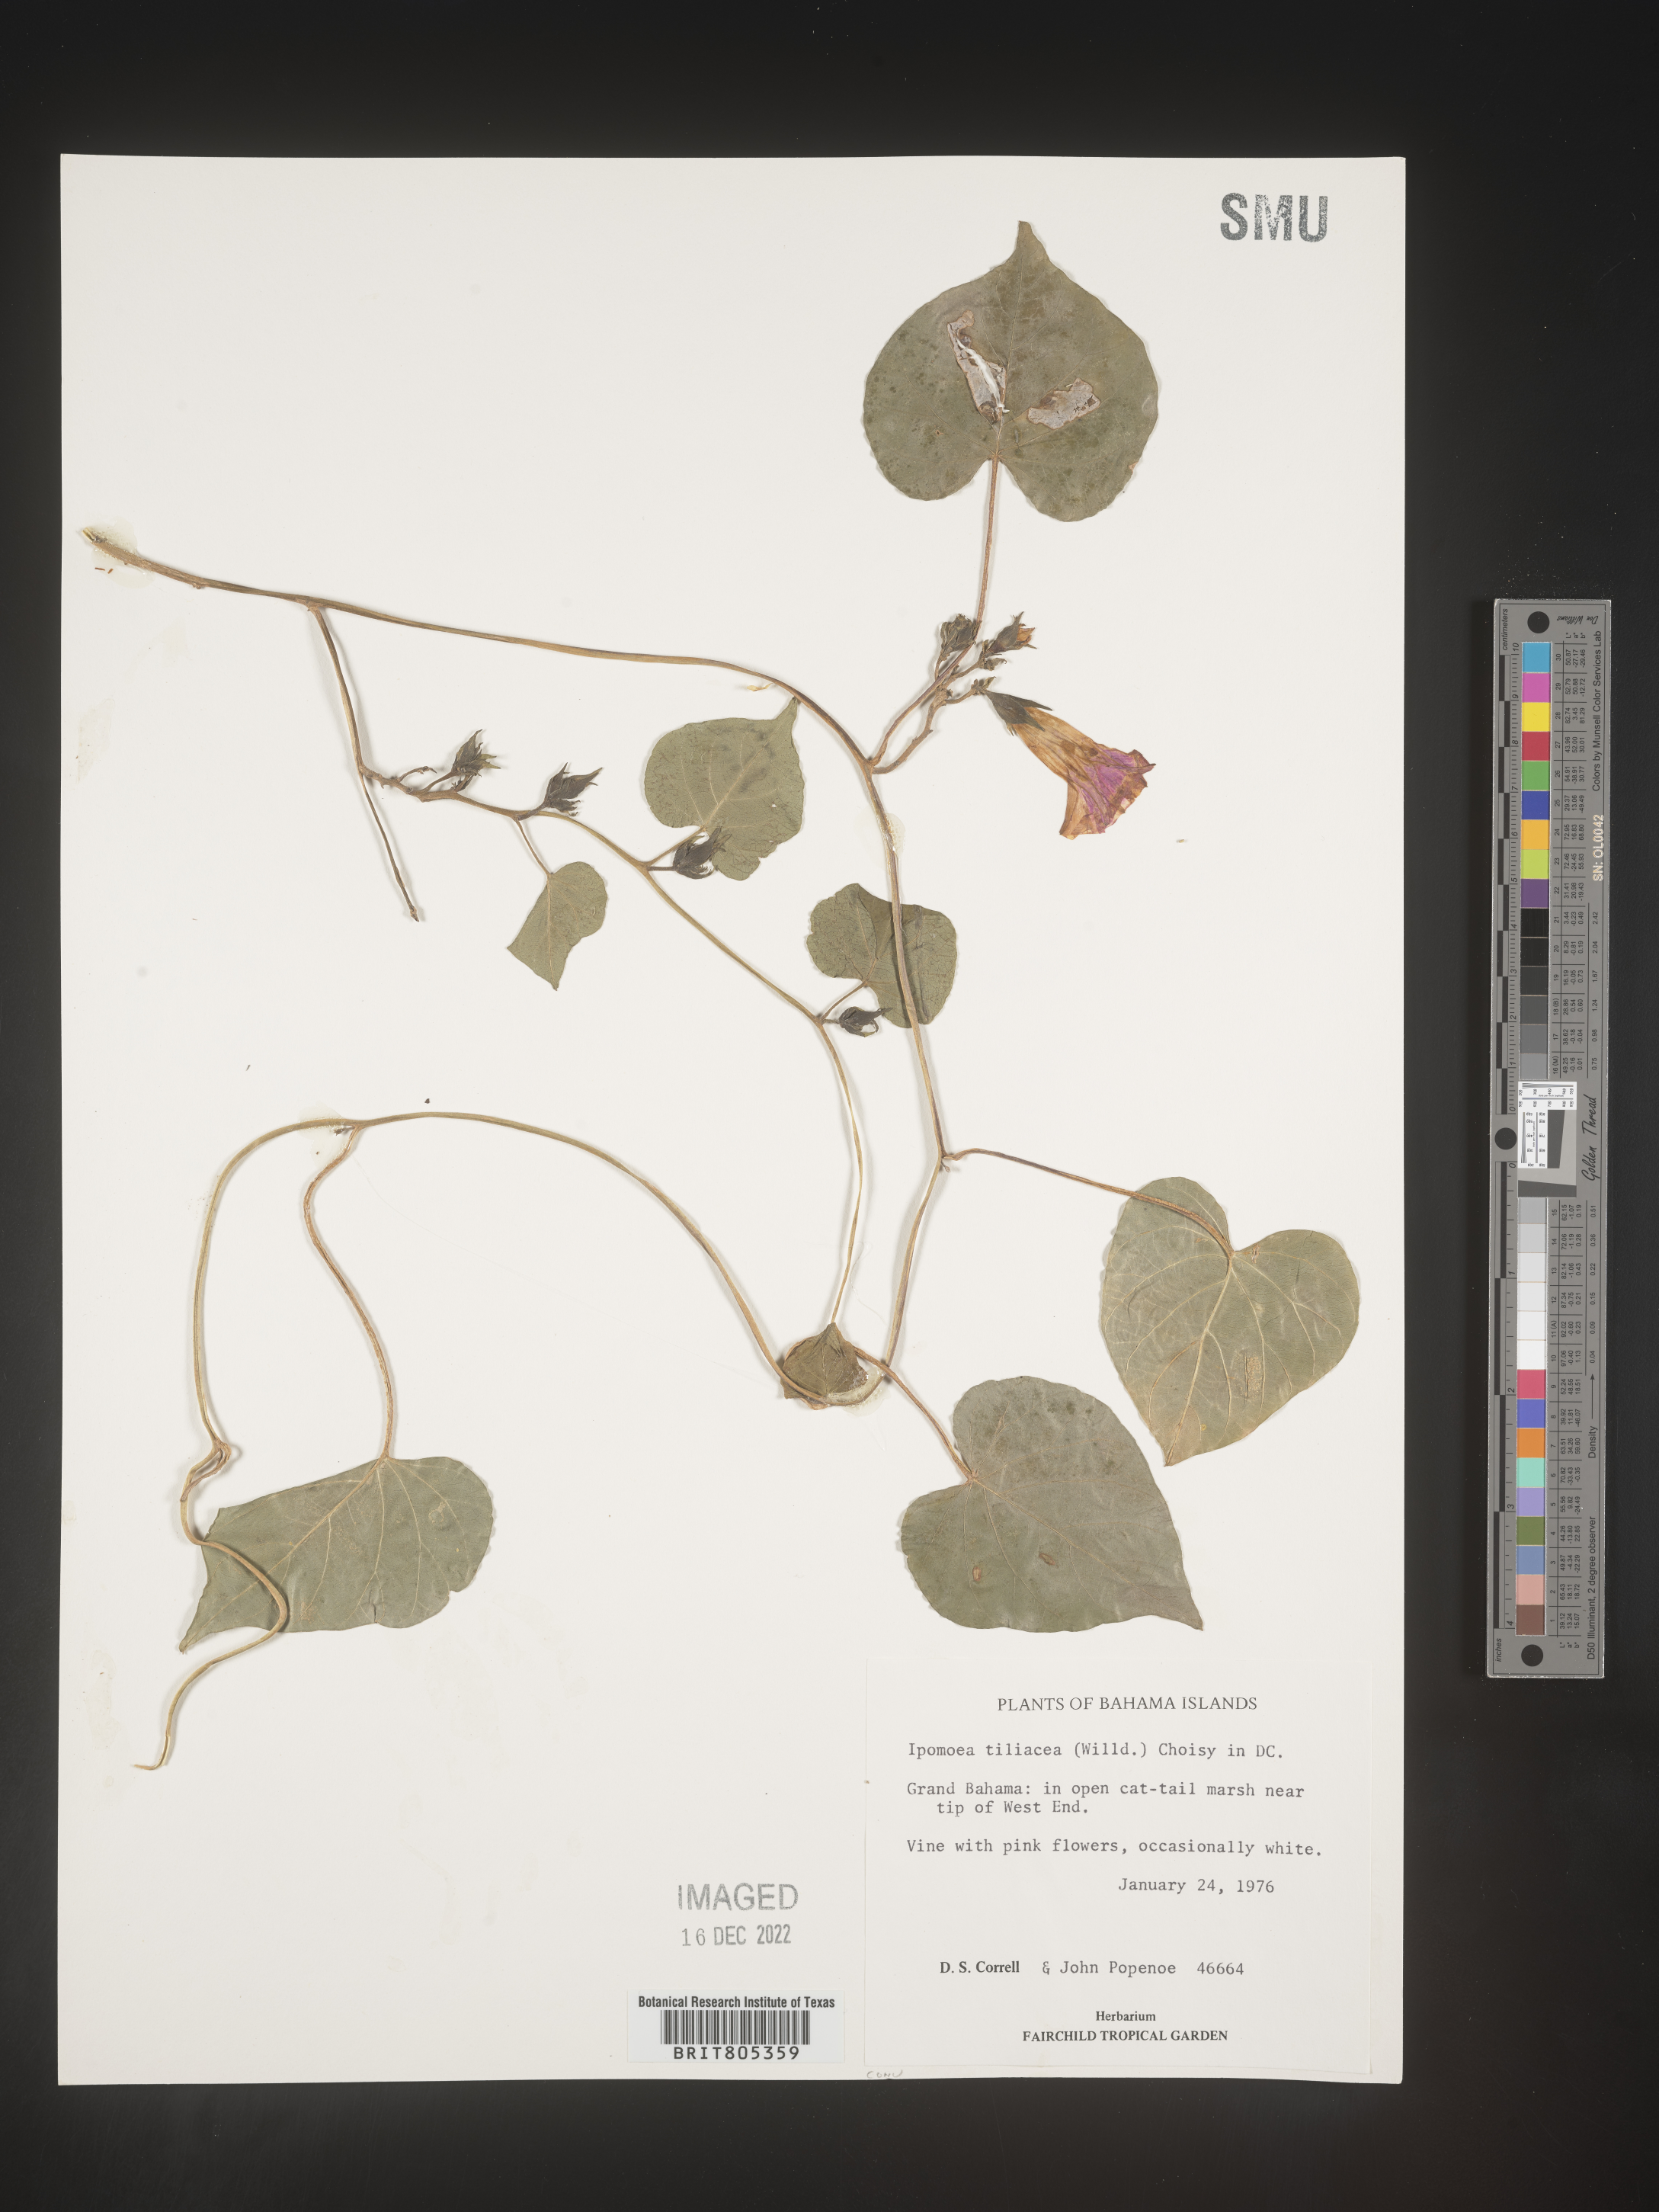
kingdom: Plantae
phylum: Tracheophyta
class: Magnoliopsida
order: Solanales
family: Convolvulaceae
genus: Ipomoea
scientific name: Ipomoea
